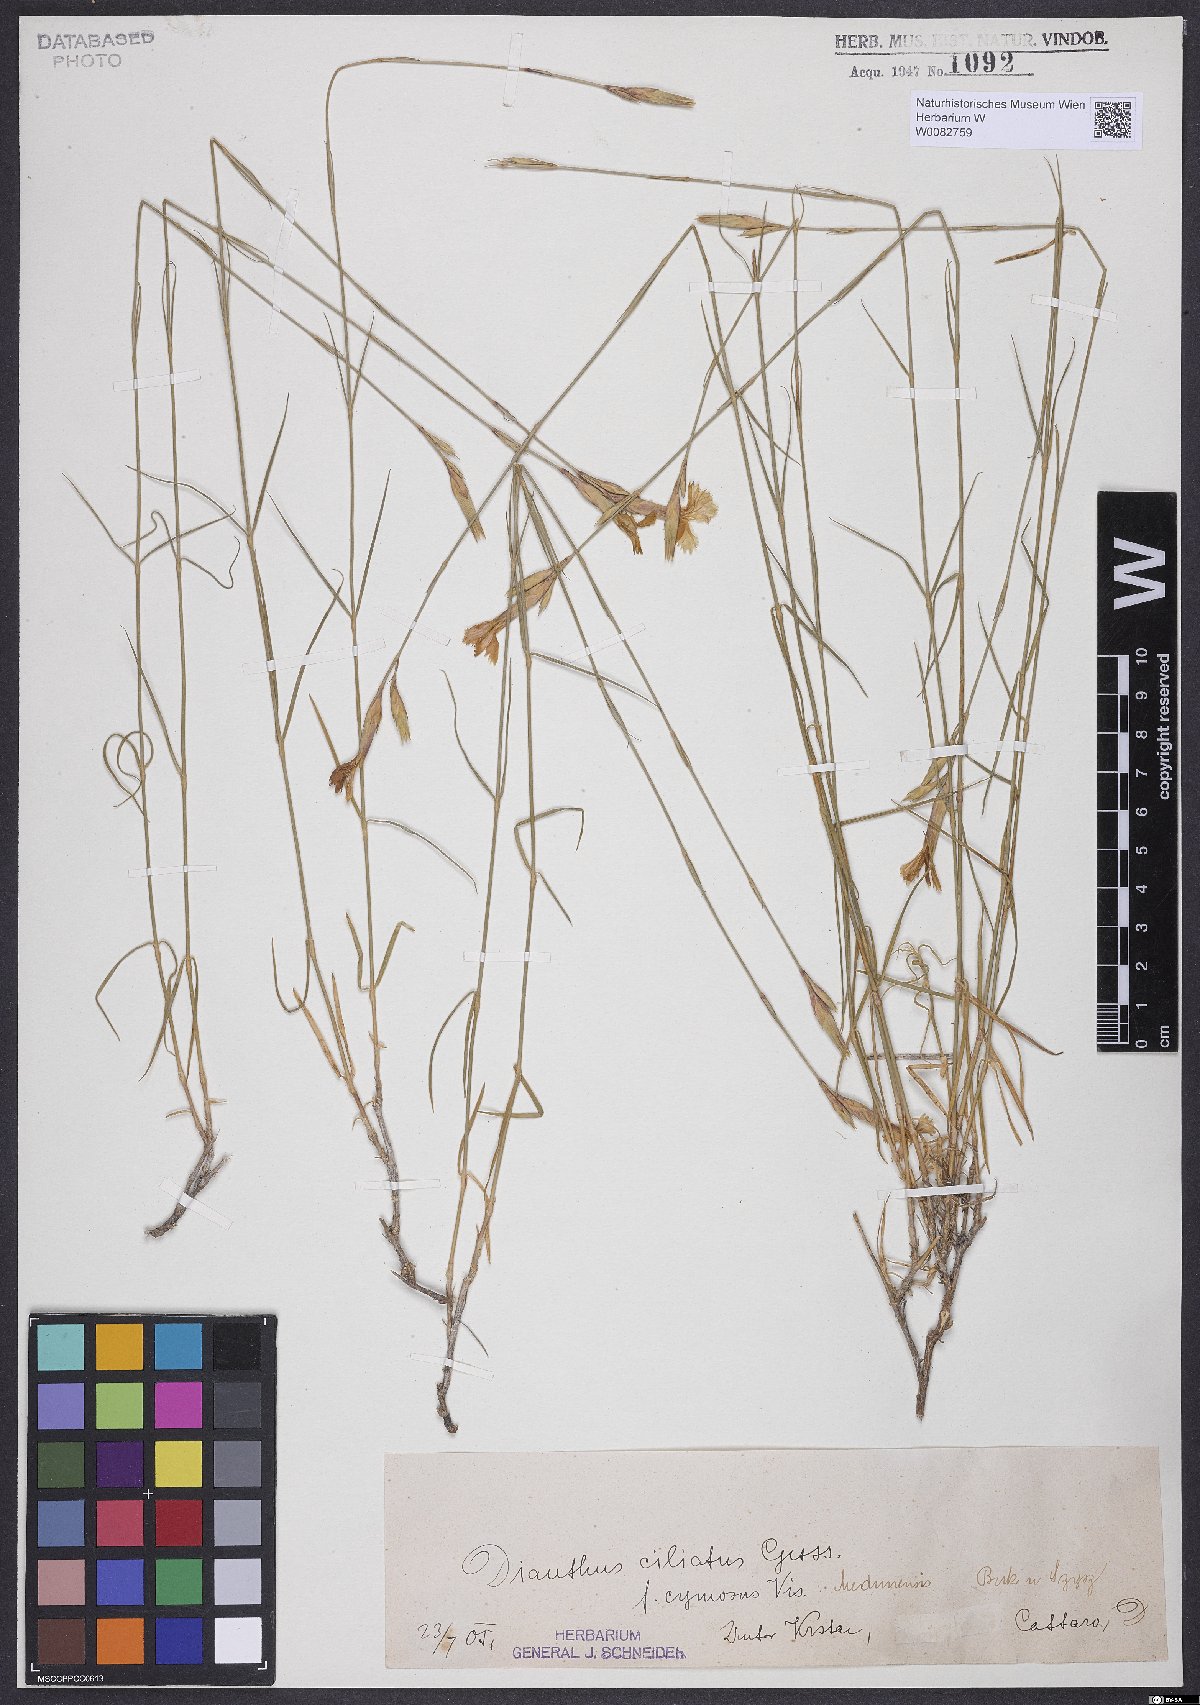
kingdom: Plantae
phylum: Tracheophyta
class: Magnoliopsida
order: Caryophyllales
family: Caryophyllaceae
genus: Dianthus
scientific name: Dianthus ciliatus
